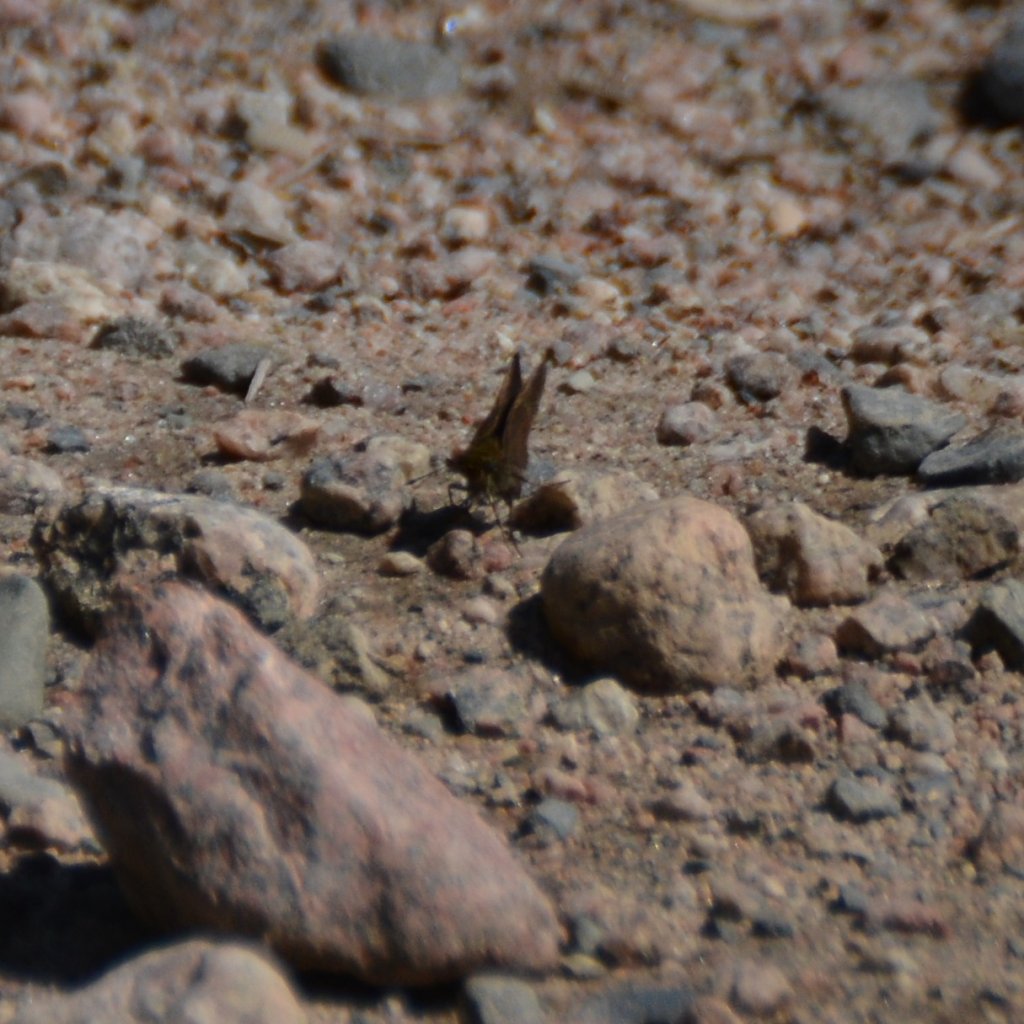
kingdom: Animalia
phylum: Arthropoda
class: Insecta
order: Lepidoptera
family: Hesperiidae
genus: Euphyes
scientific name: Euphyes vestris
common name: Dun Skipper
